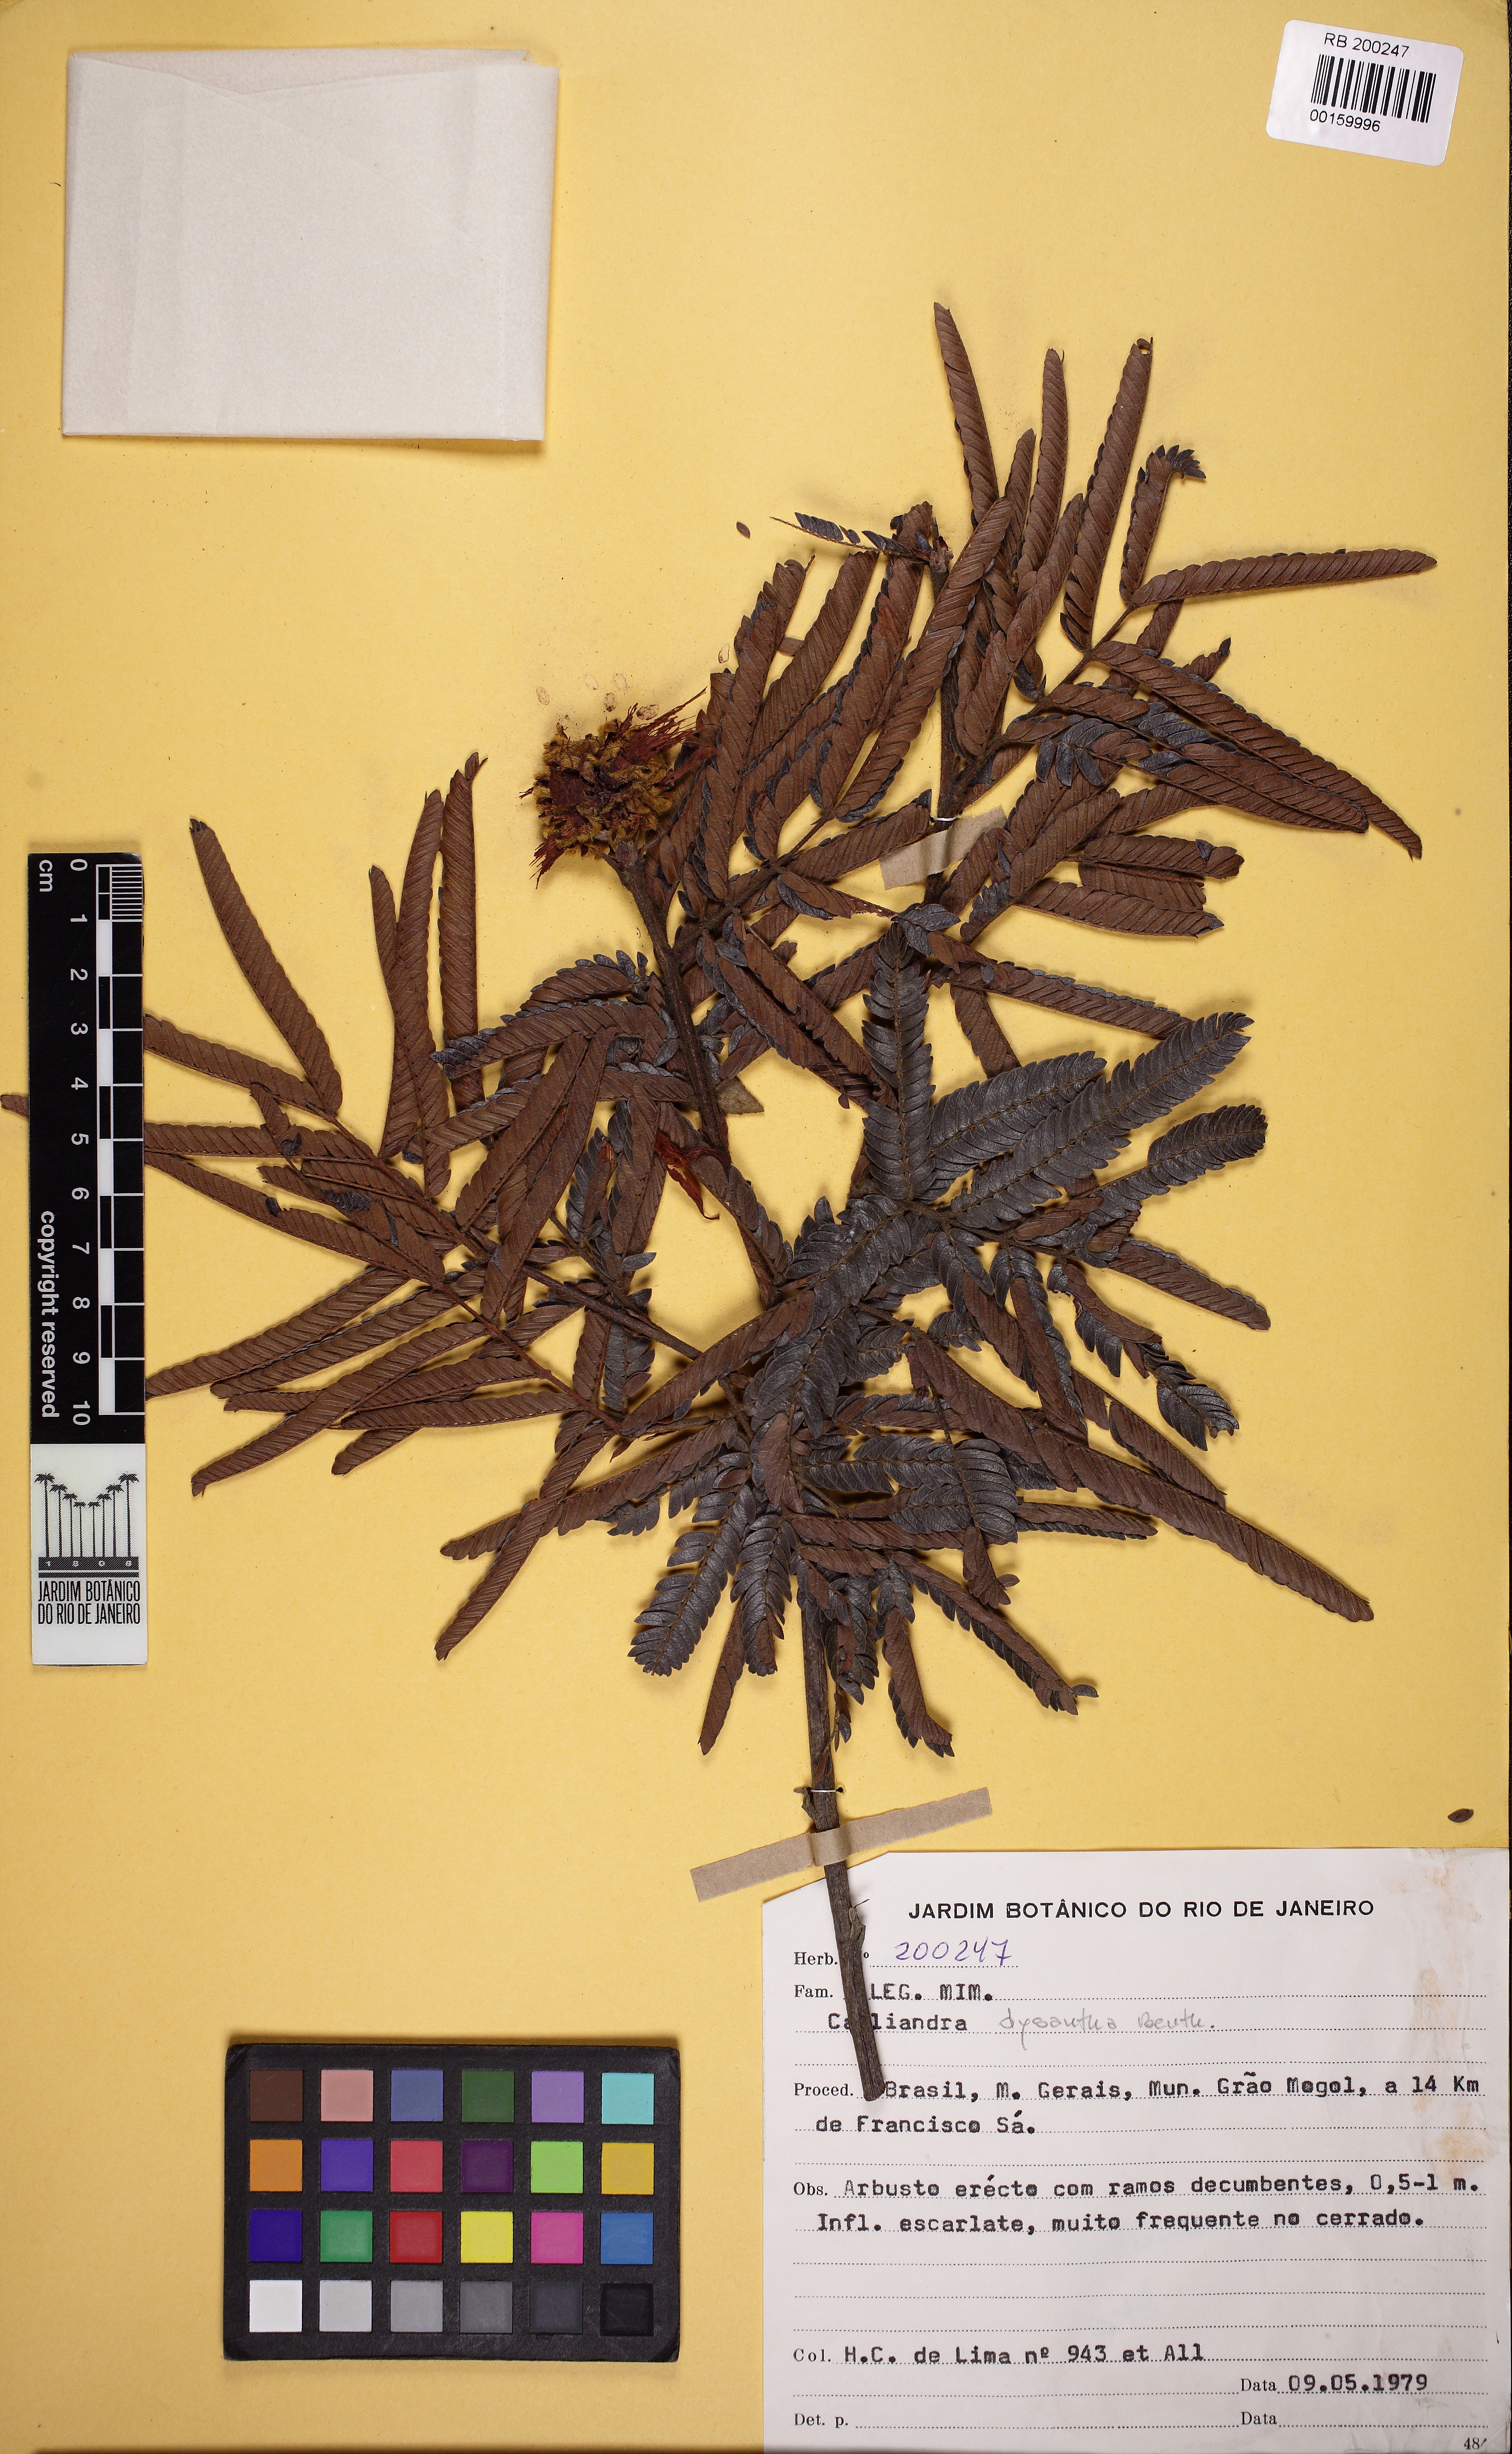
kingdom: Plantae
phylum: Tracheophyta
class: Magnoliopsida
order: Fabales
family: Fabaceae
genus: Calliandra
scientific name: Calliandra dysantha
